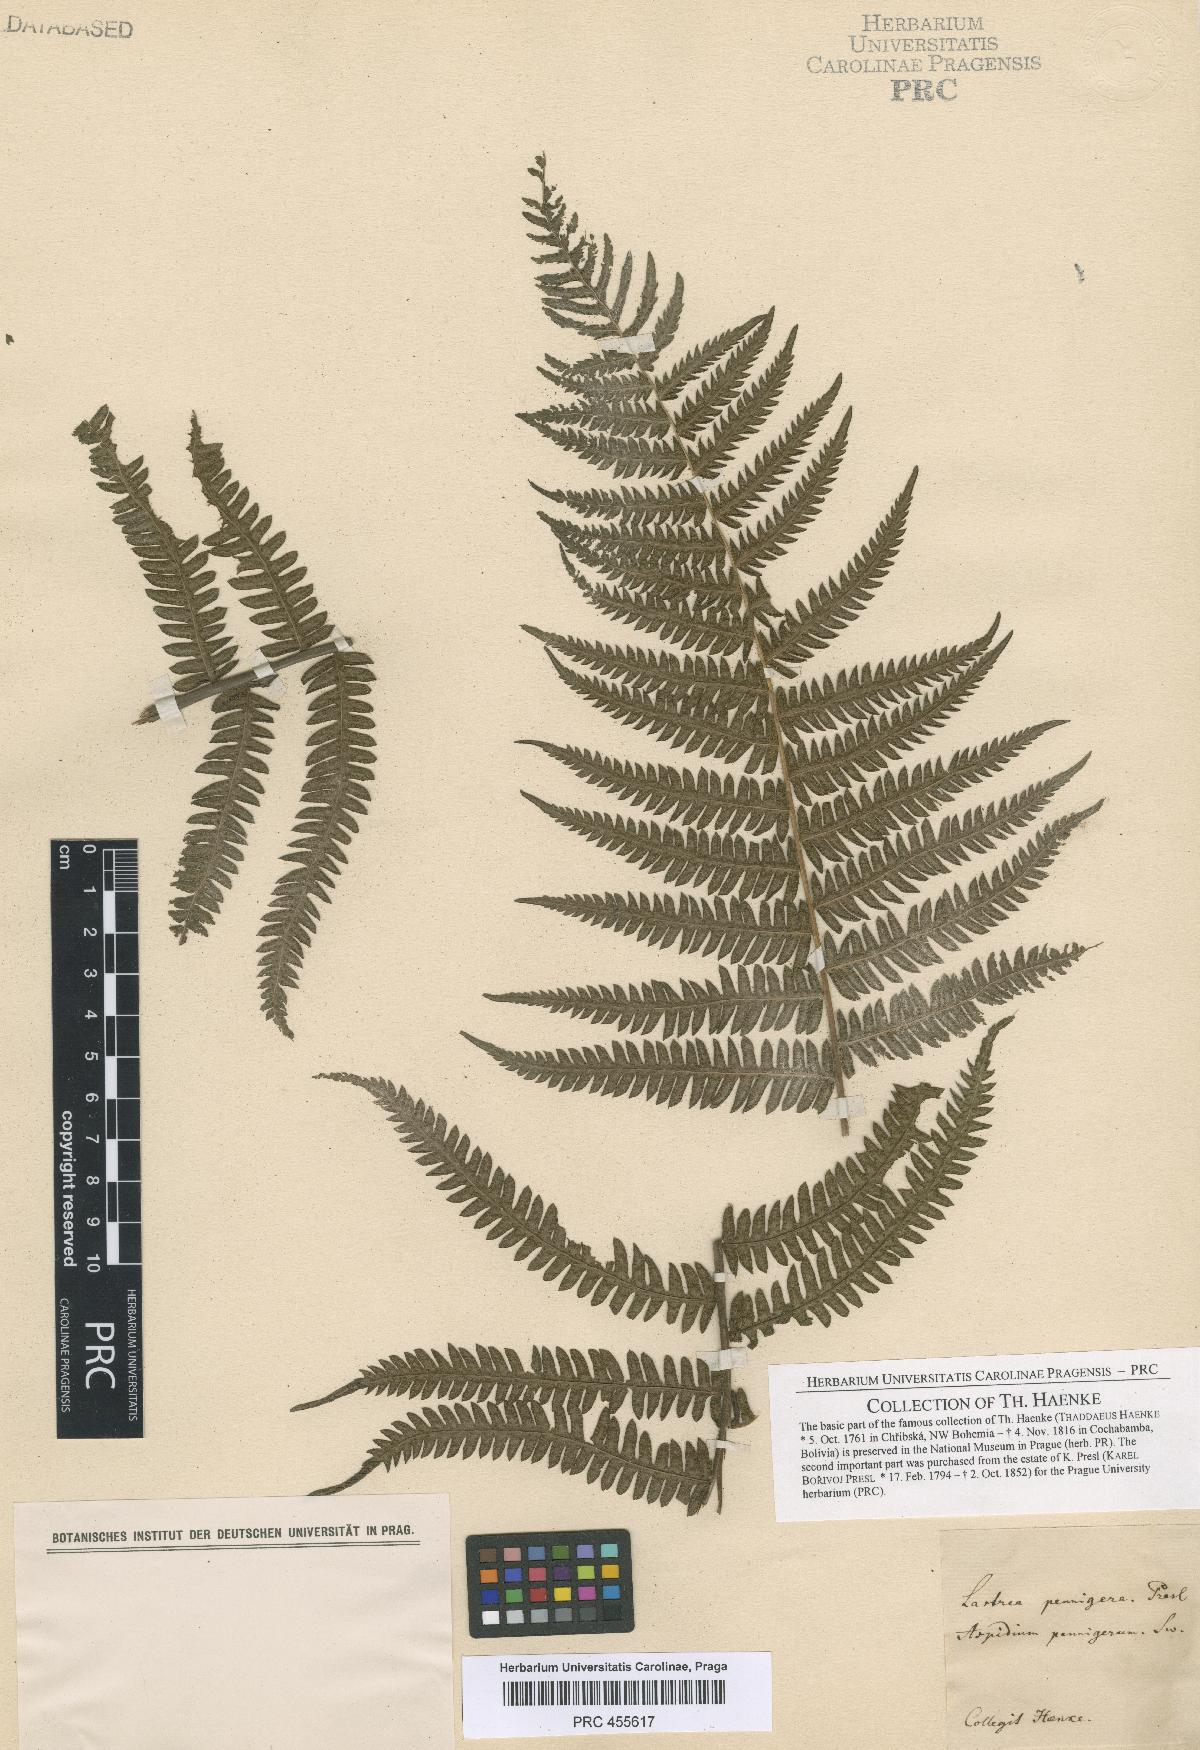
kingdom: Plantae
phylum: Tracheophyta
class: Polypodiopsida
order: Polypodiales
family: Thelypteridaceae
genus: Pakau
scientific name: Pakau pennigera
